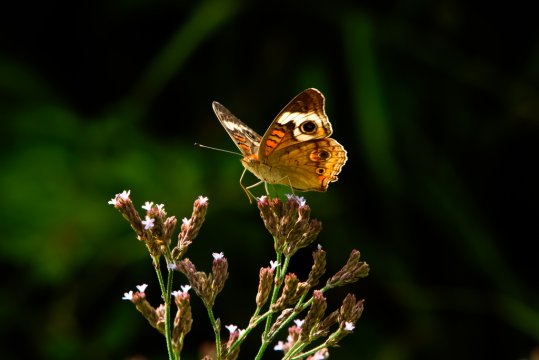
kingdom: Animalia
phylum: Arthropoda
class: Insecta
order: Lepidoptera
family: Nymphalidae
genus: Junonia
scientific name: Junonia coenia
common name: Common Buckeye
